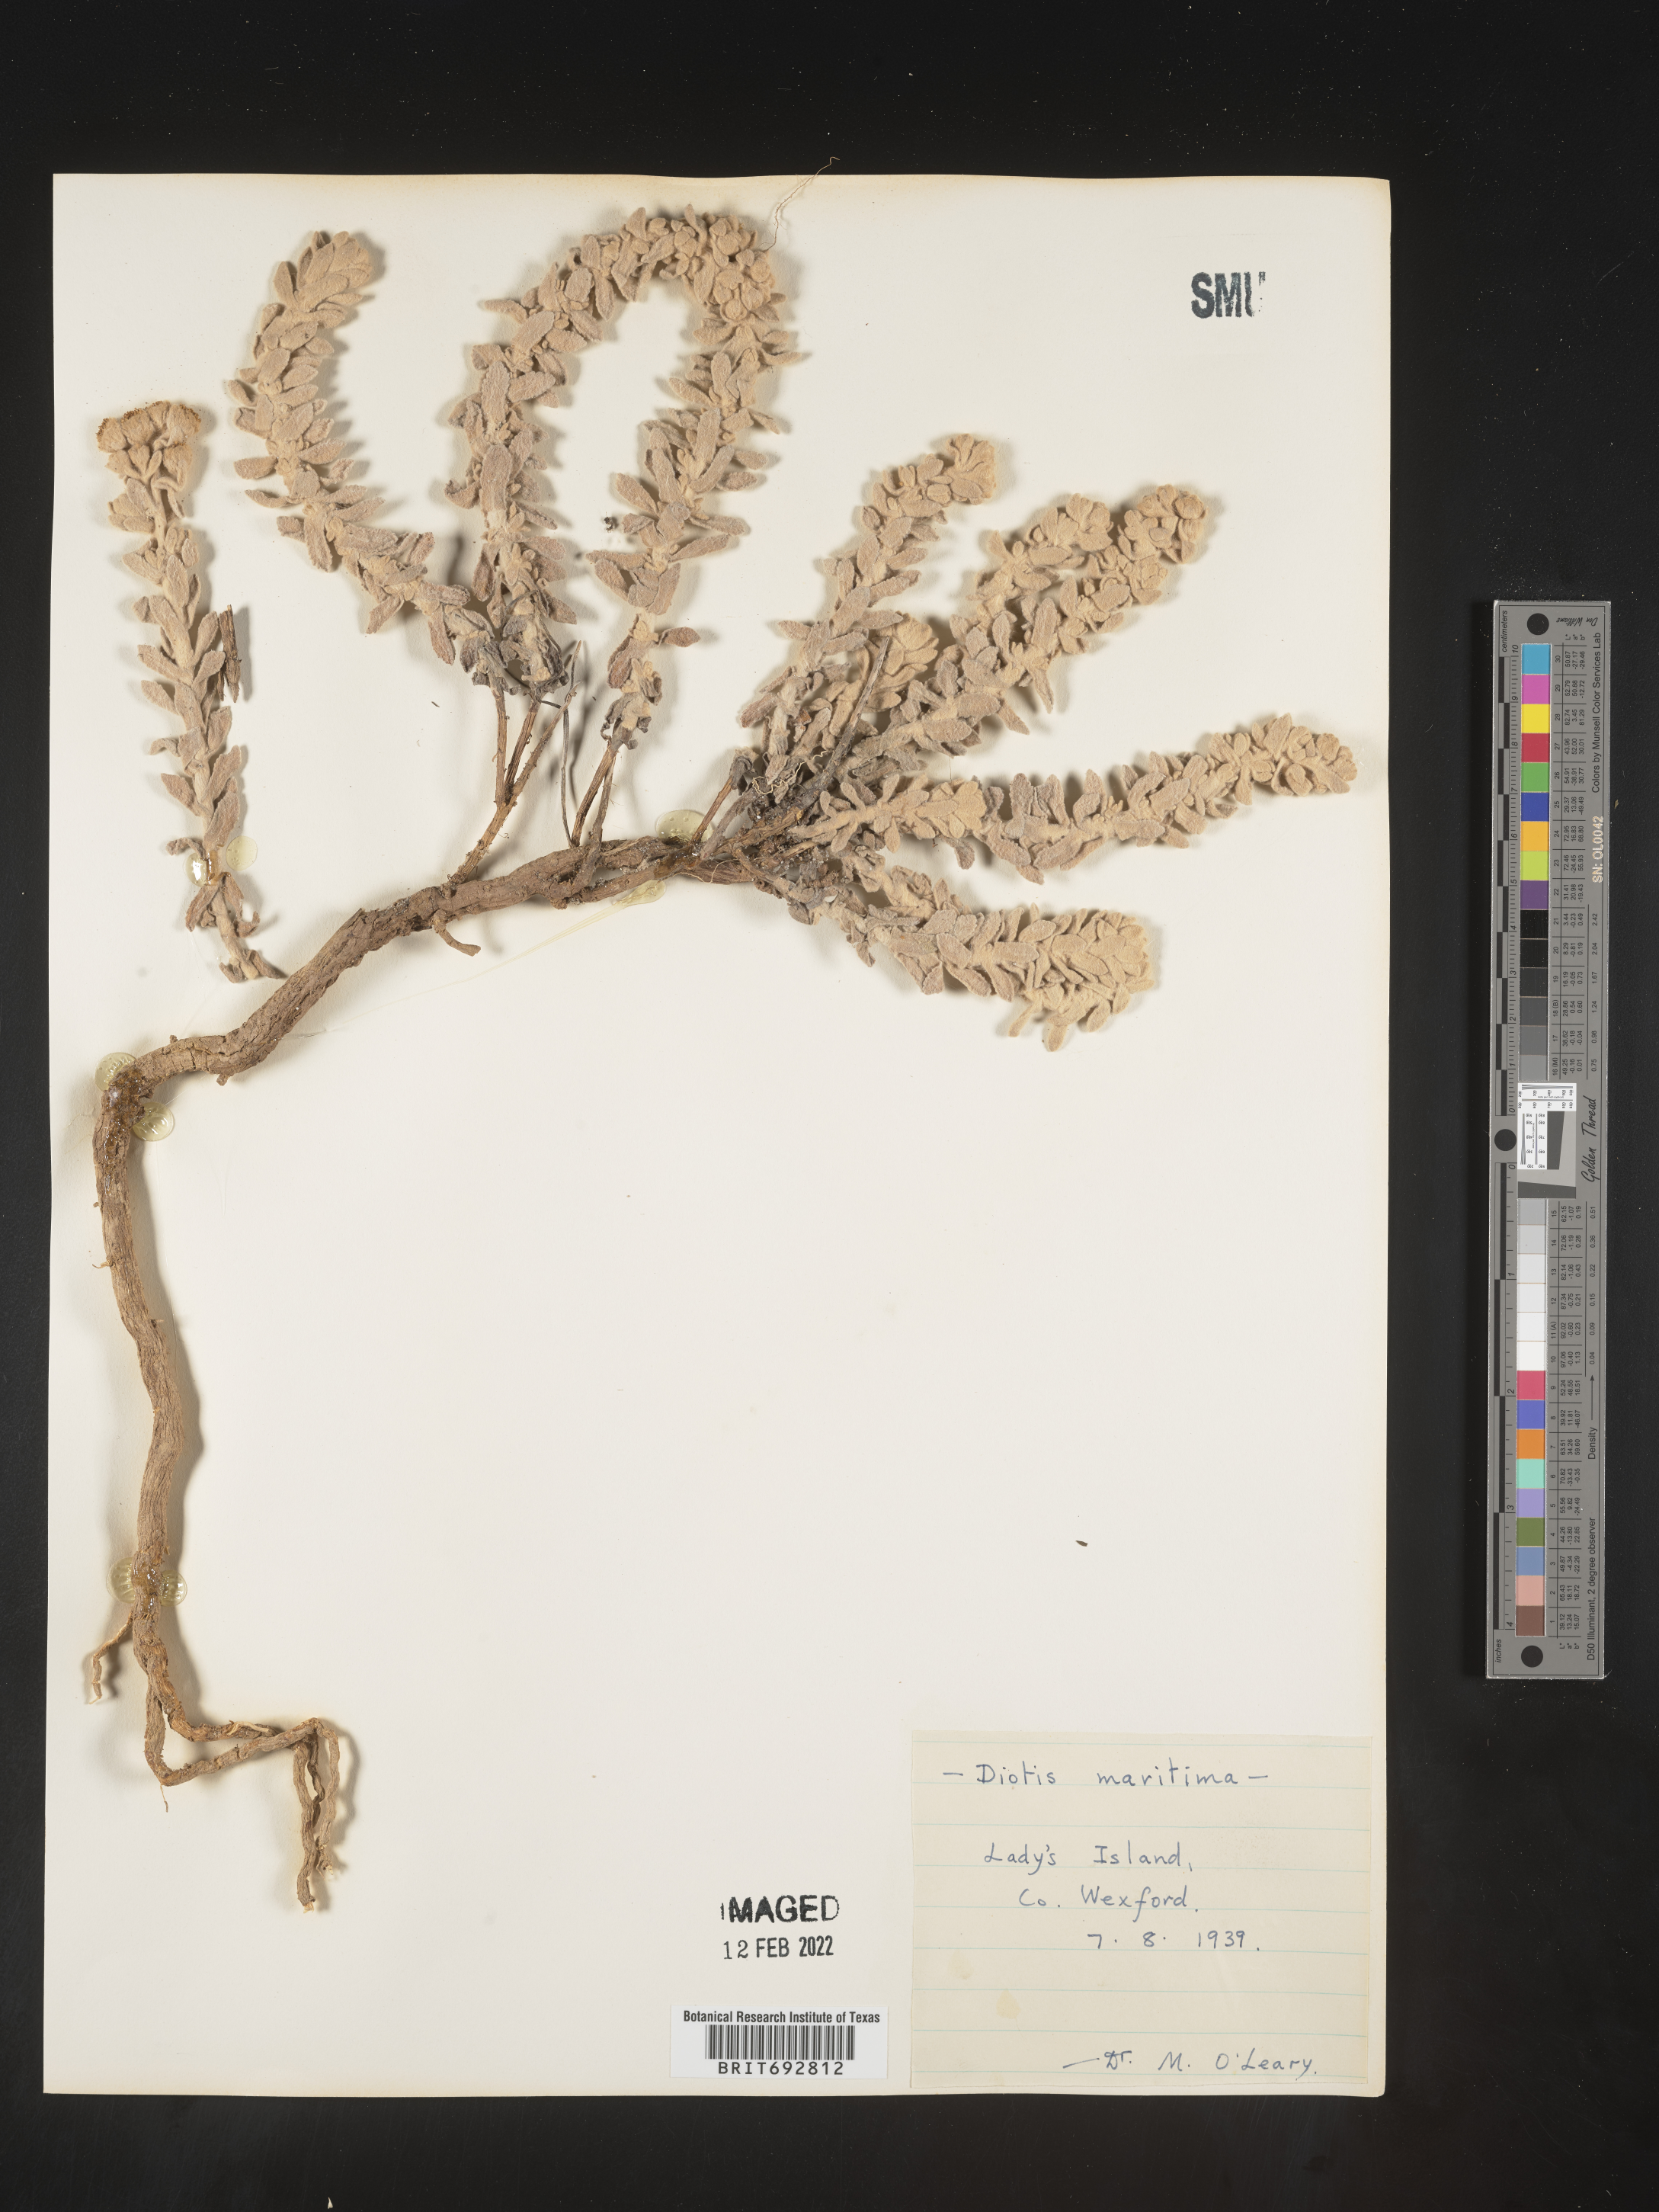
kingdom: Plantae
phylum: Tracheophyta
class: Magnoliopsida
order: Asterales
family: Asteraceae
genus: Achillea
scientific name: Achillea
